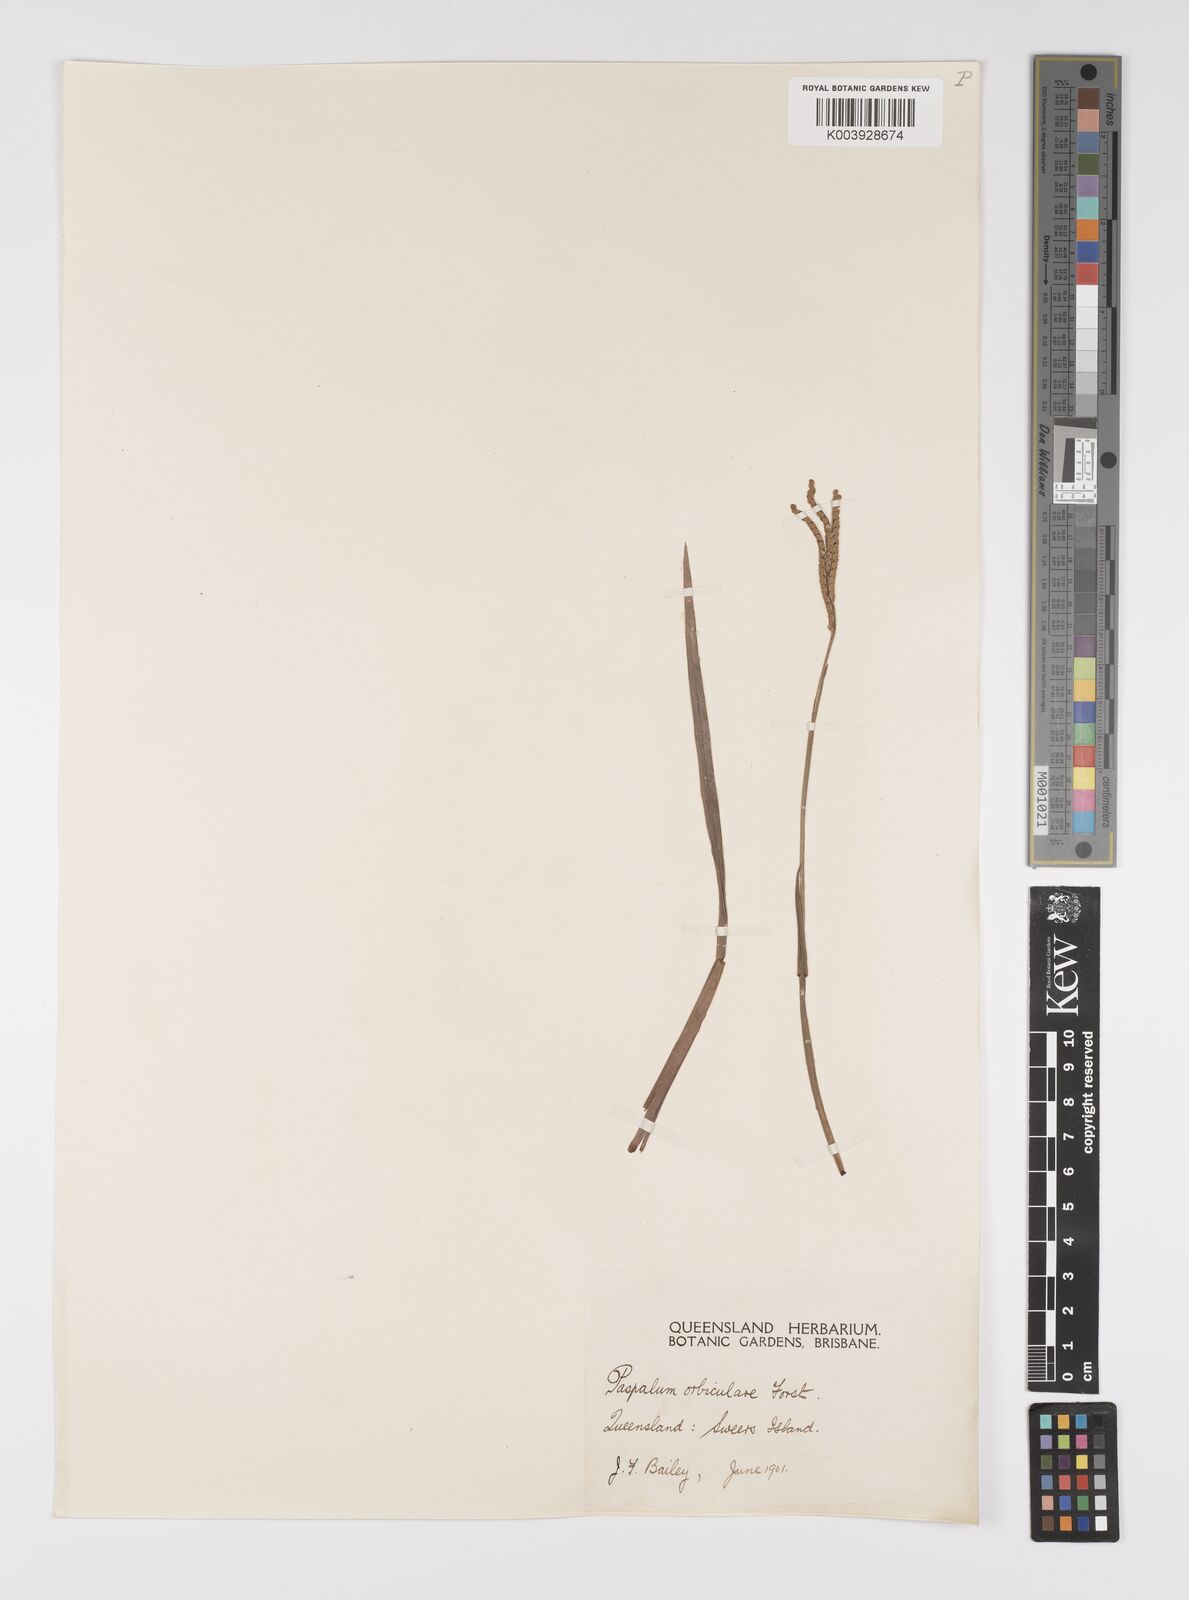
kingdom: Plantae
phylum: Tracheophyta
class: Liliopsida
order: Poales
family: Poaceae
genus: Paspalum
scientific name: Paspalum scrobiculatum
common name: Kodo millet
